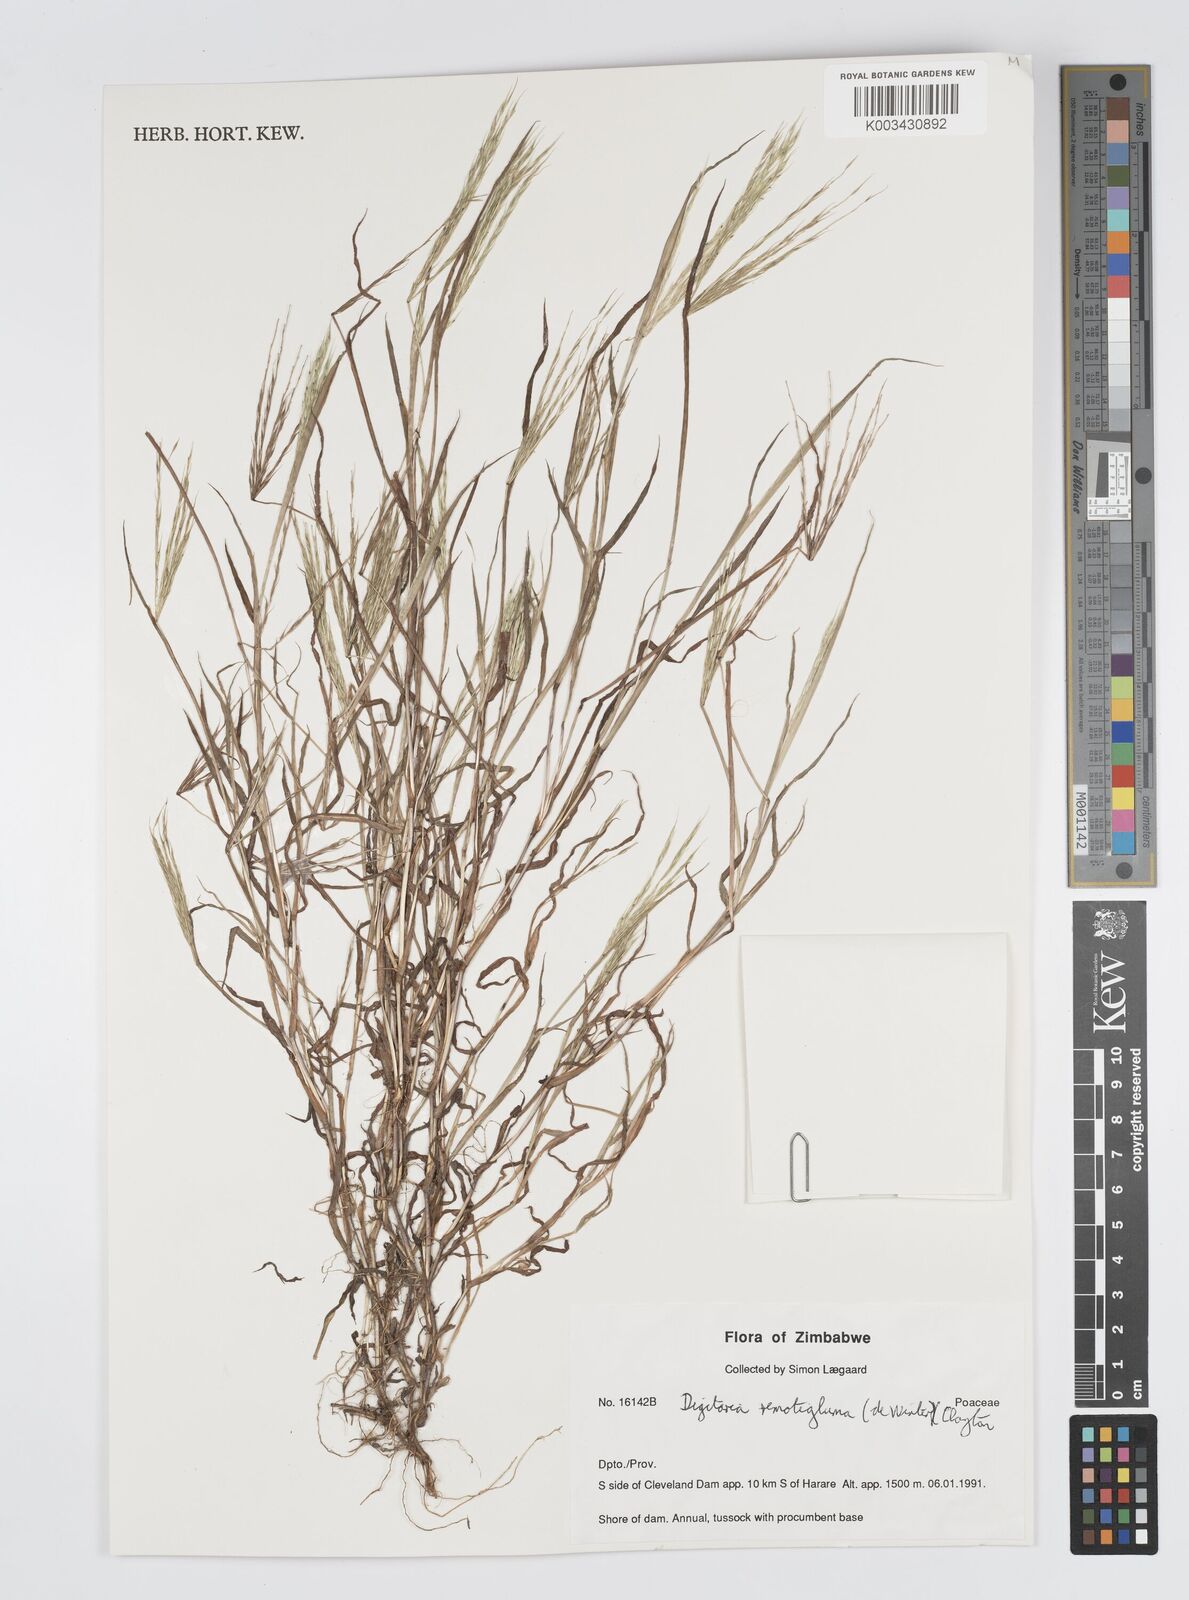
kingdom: Plantae
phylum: Tracheophyta
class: Liliopsida
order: Poales
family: Poaceae
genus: Digitaria
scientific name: Digitaria remotigluma
